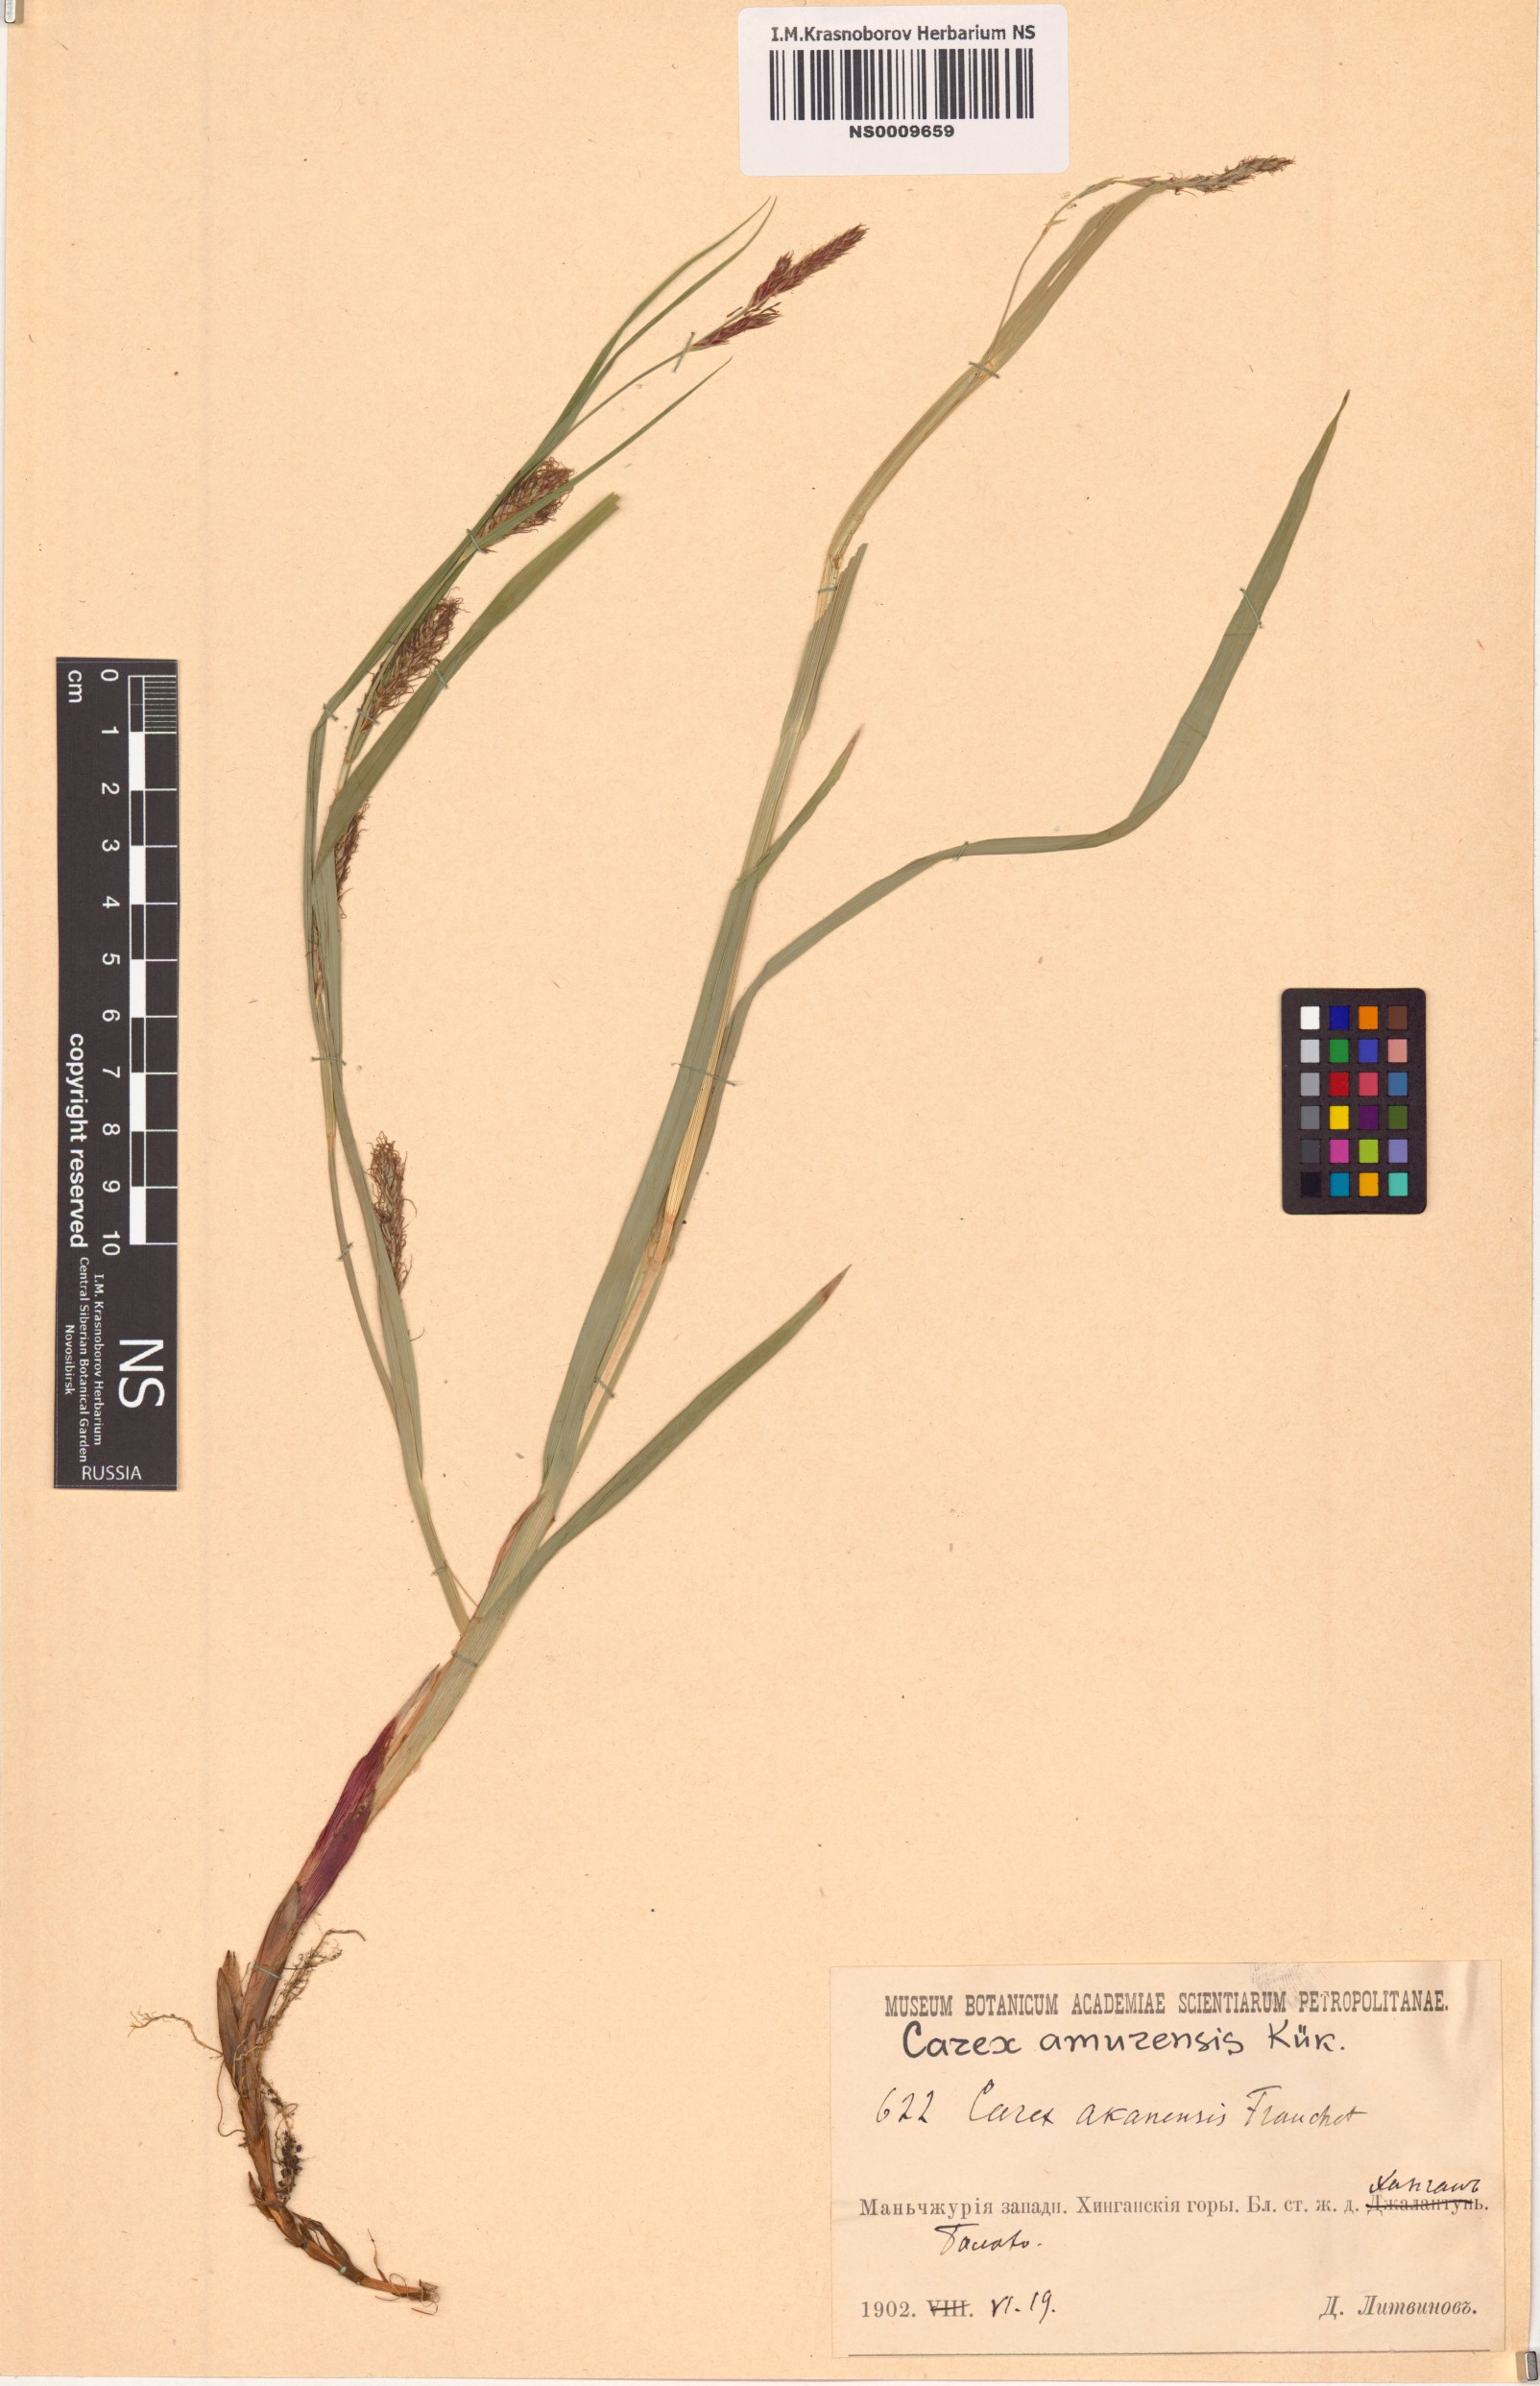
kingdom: Plantae
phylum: Tracheophyta
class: Liliopsida
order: Poales
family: Cyperaceae
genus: Carex
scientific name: Carex sordida
